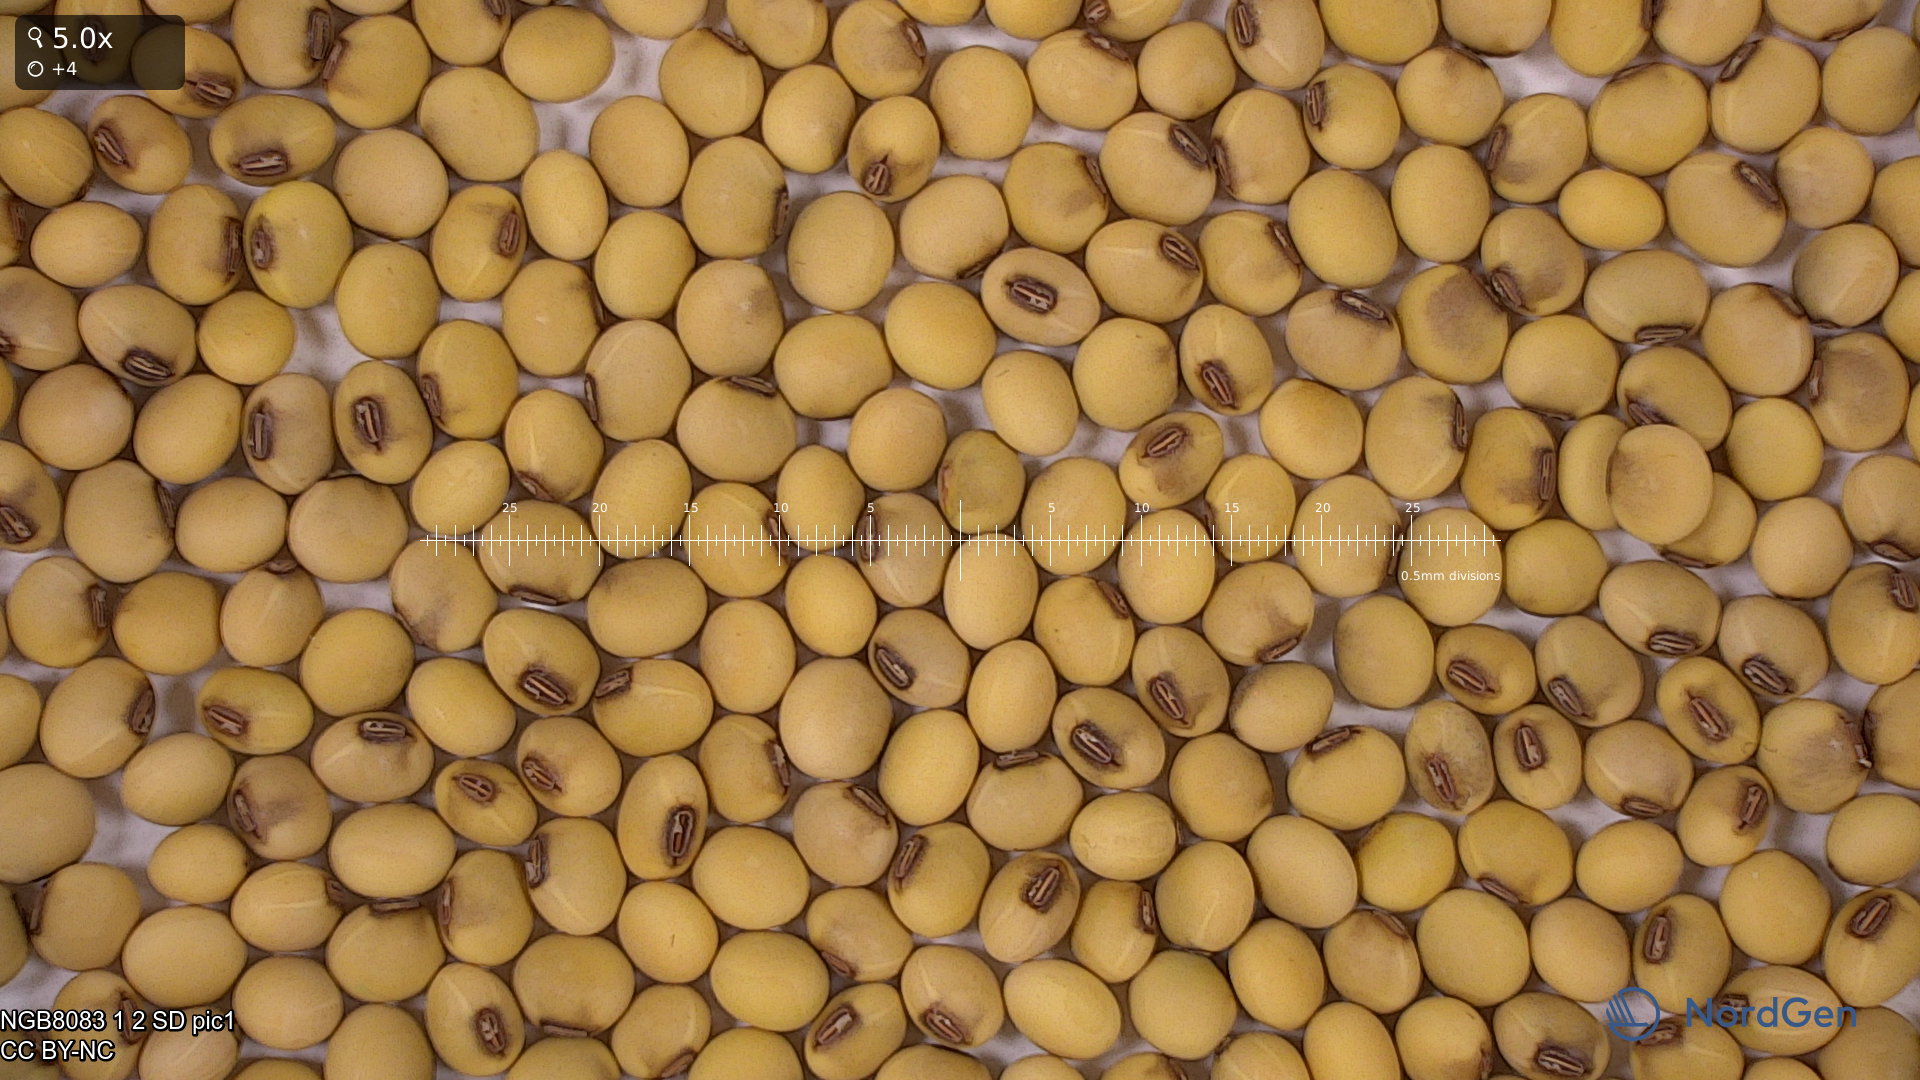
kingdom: Plantae
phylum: Tracheophyta
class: Magnoliopsida
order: Fabales
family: Fabaceae
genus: Glycine
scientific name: Glycine max
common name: Soya-bean
